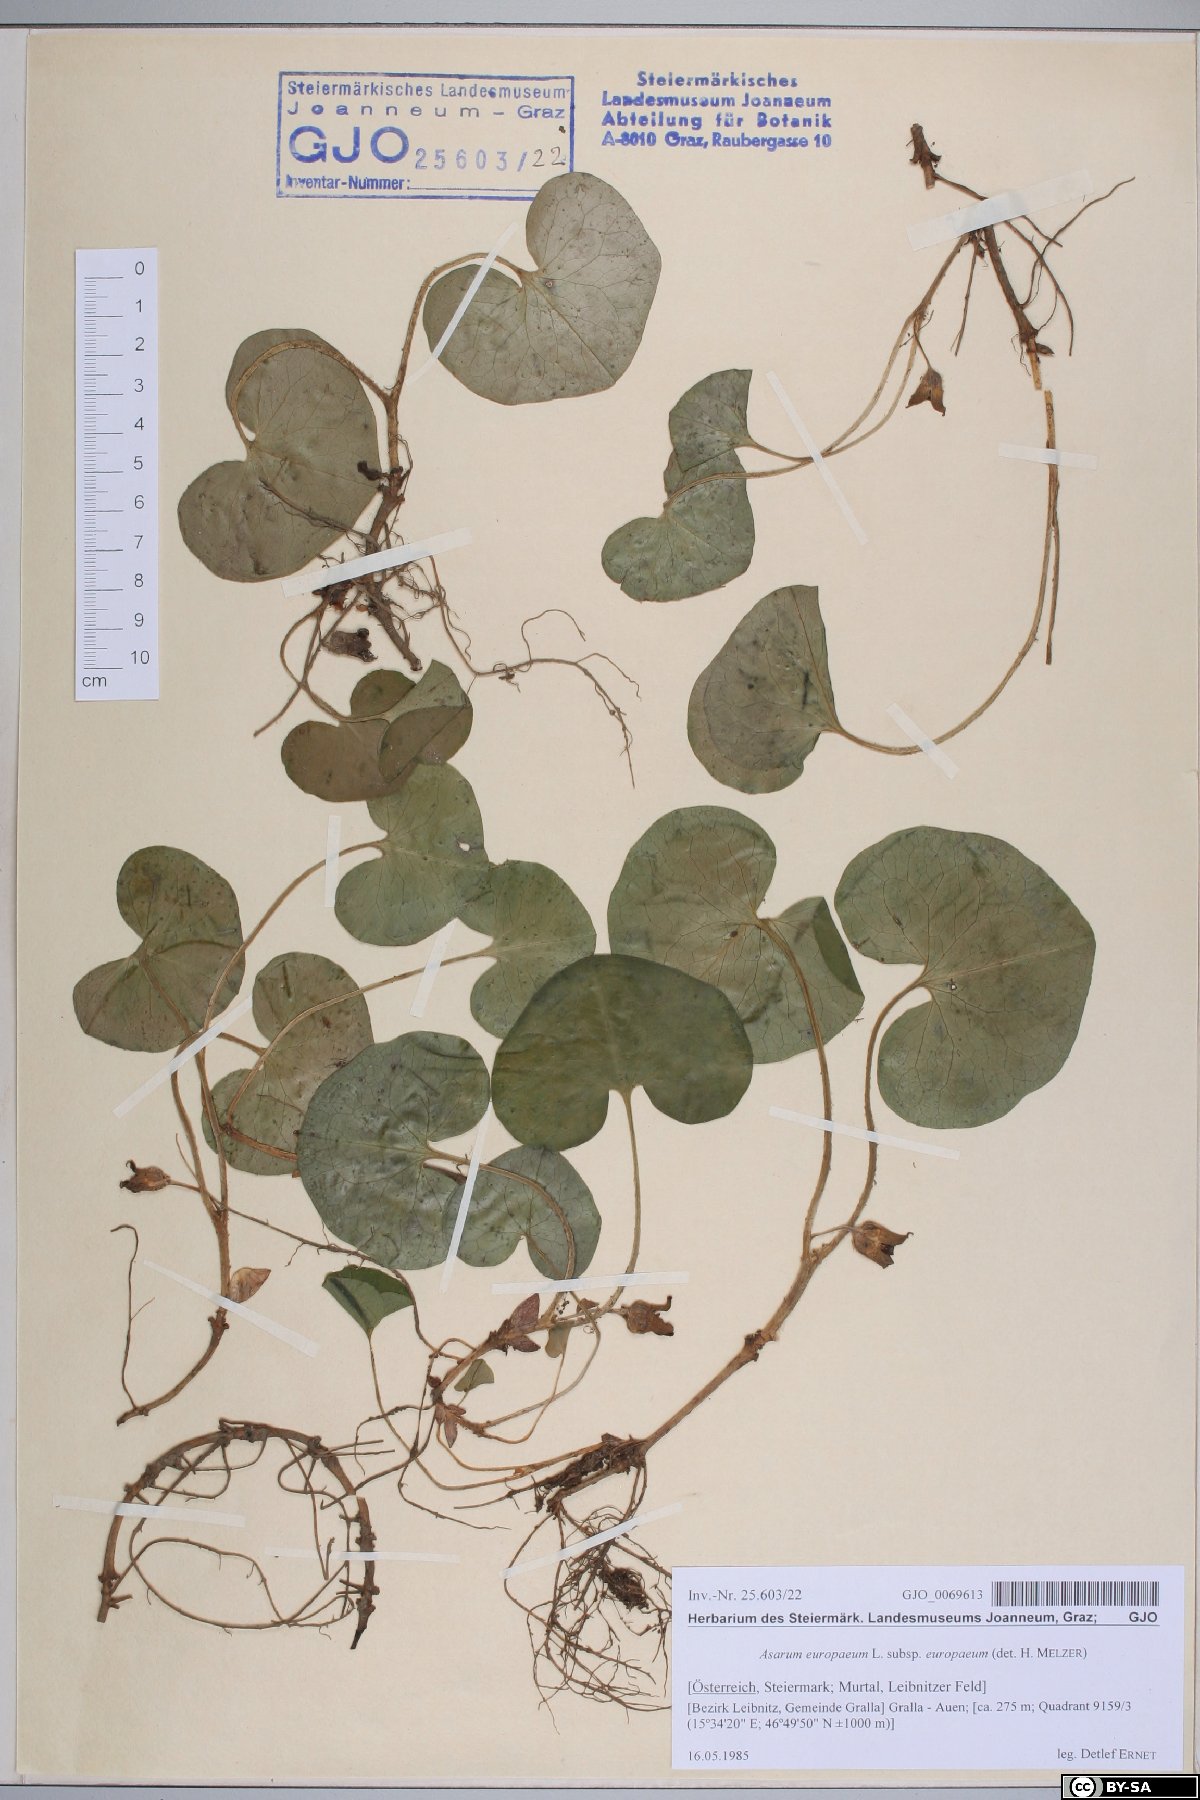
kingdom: Plantae
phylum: Tracheophyta
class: Magnoliopsida
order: Piperales
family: Aristolochiaceae
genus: Asarum
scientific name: Asarum europaeum
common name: Asarabacca
